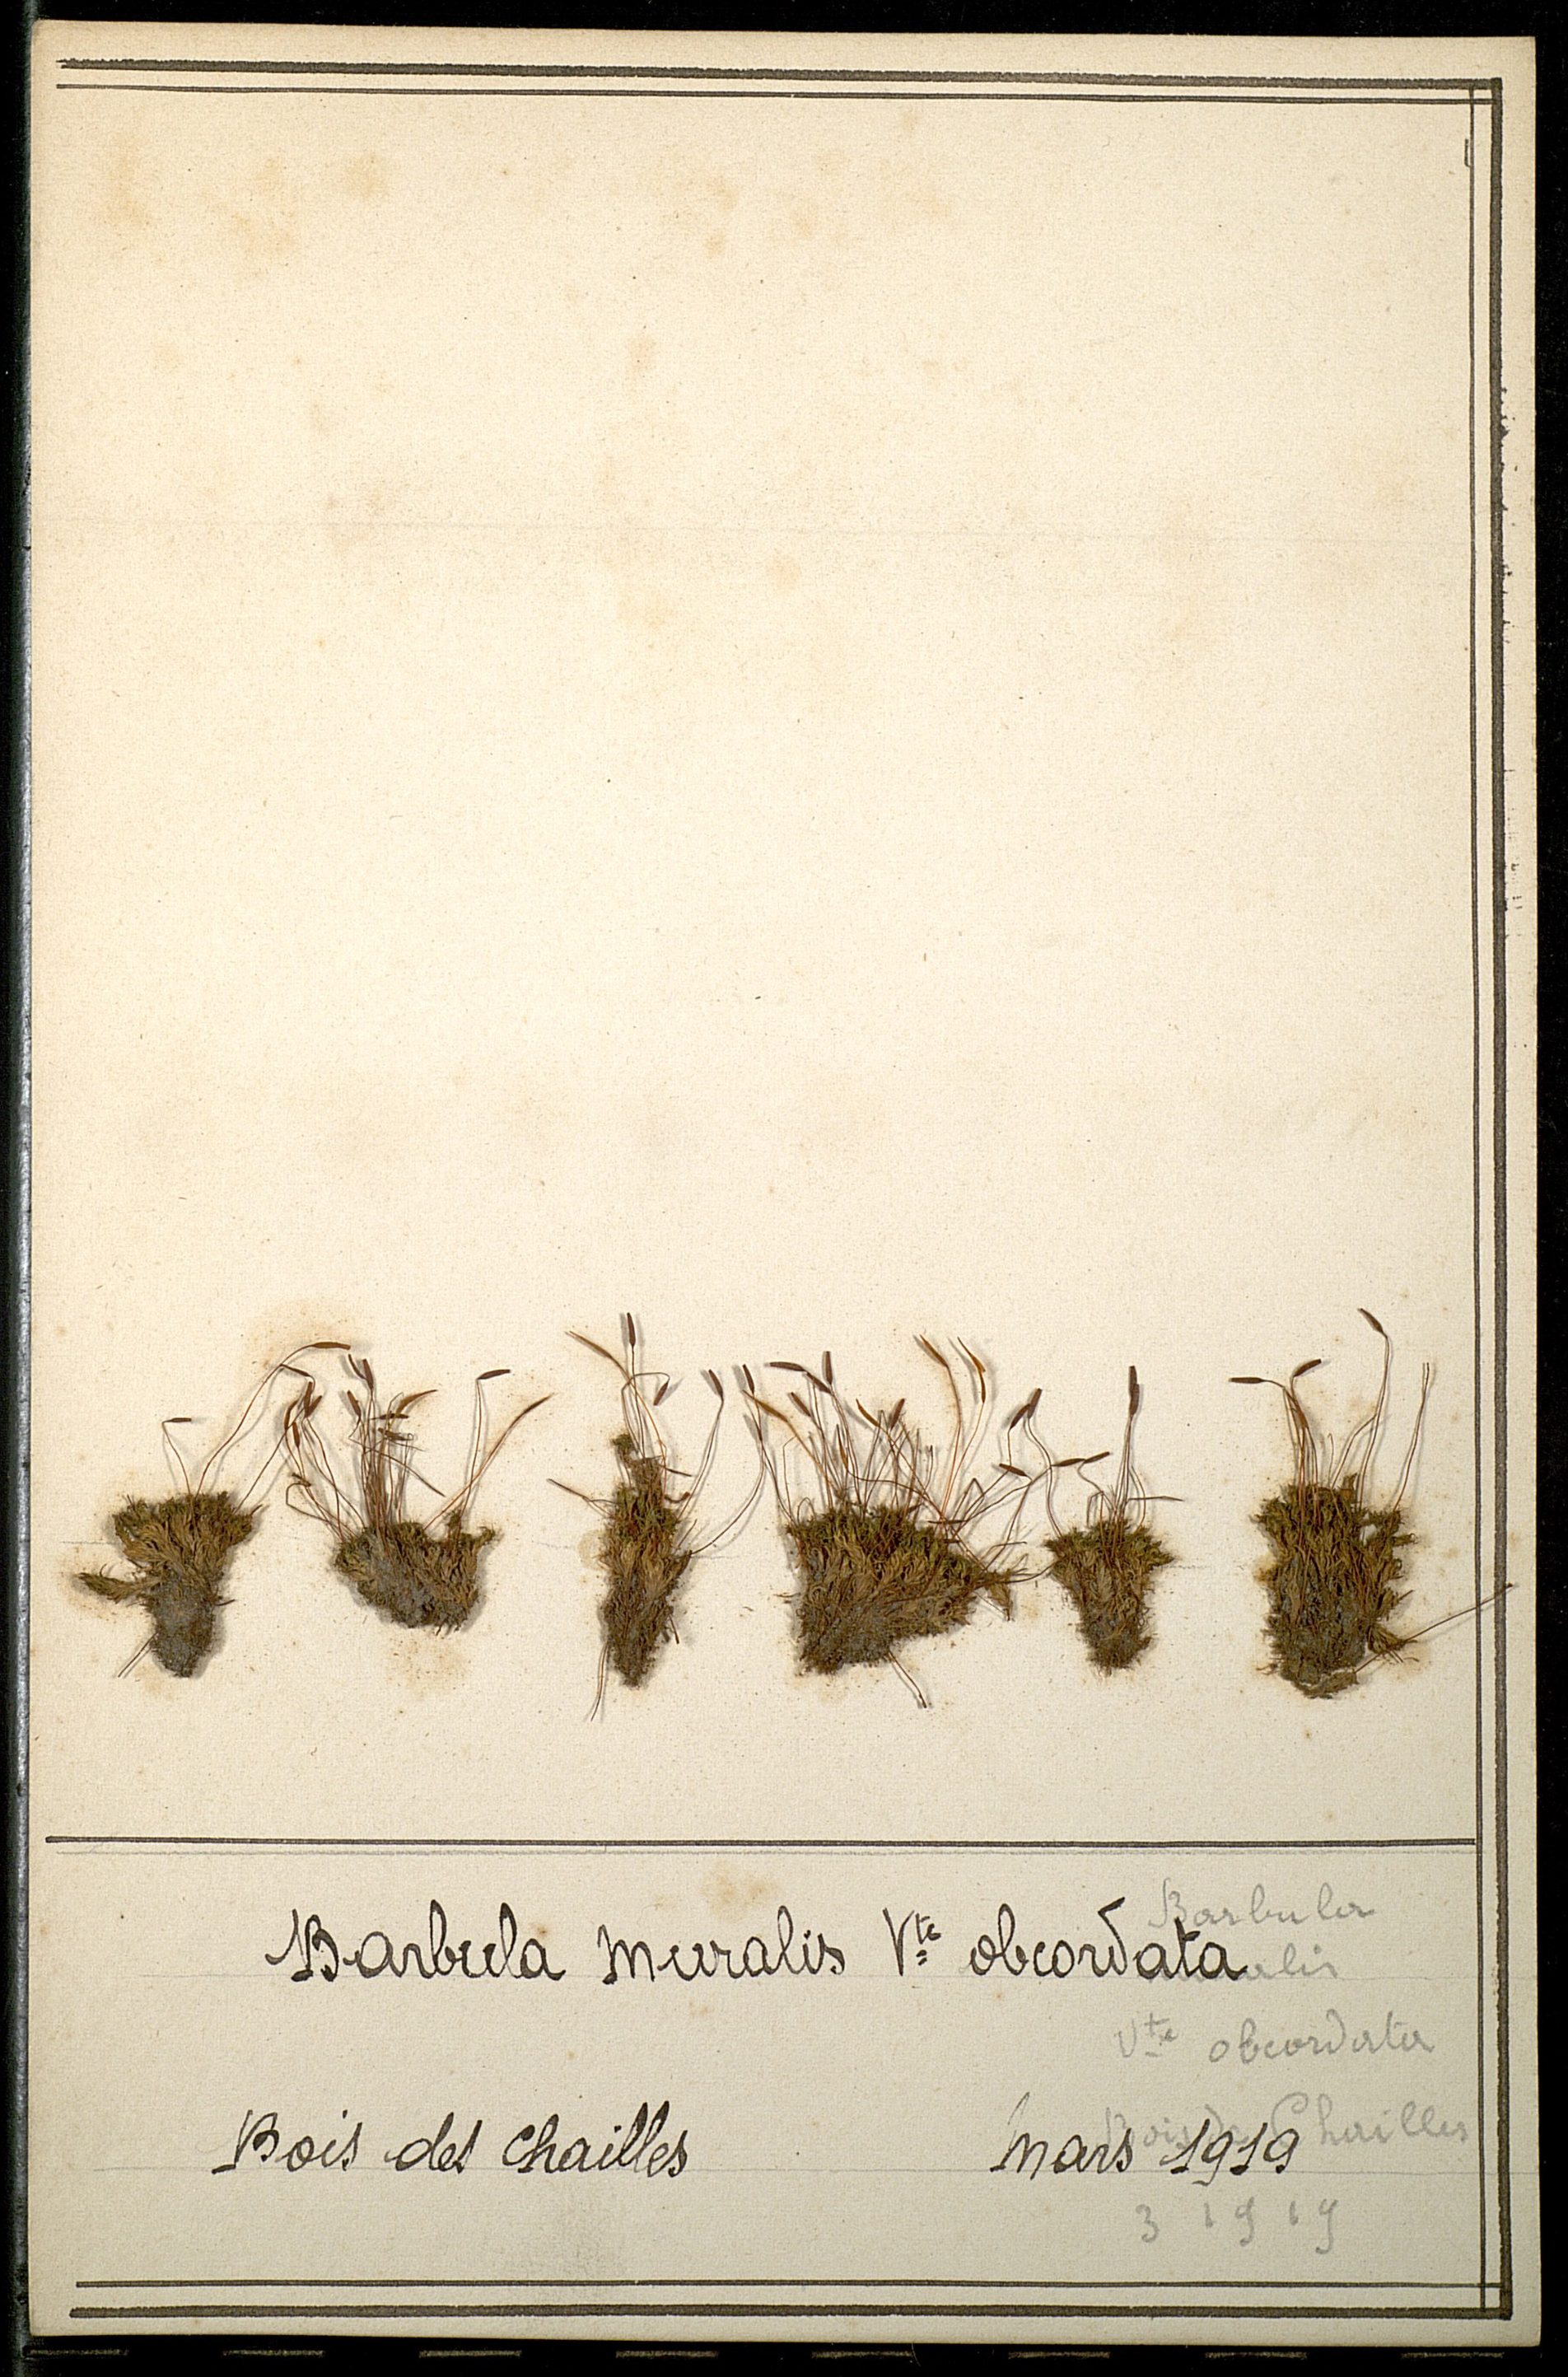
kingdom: Plantae
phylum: Bryophyta
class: Bryopsida
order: Pottiales
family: Pottiaceae
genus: Tortula
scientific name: Tortula muralis
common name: Wall screw-moss
